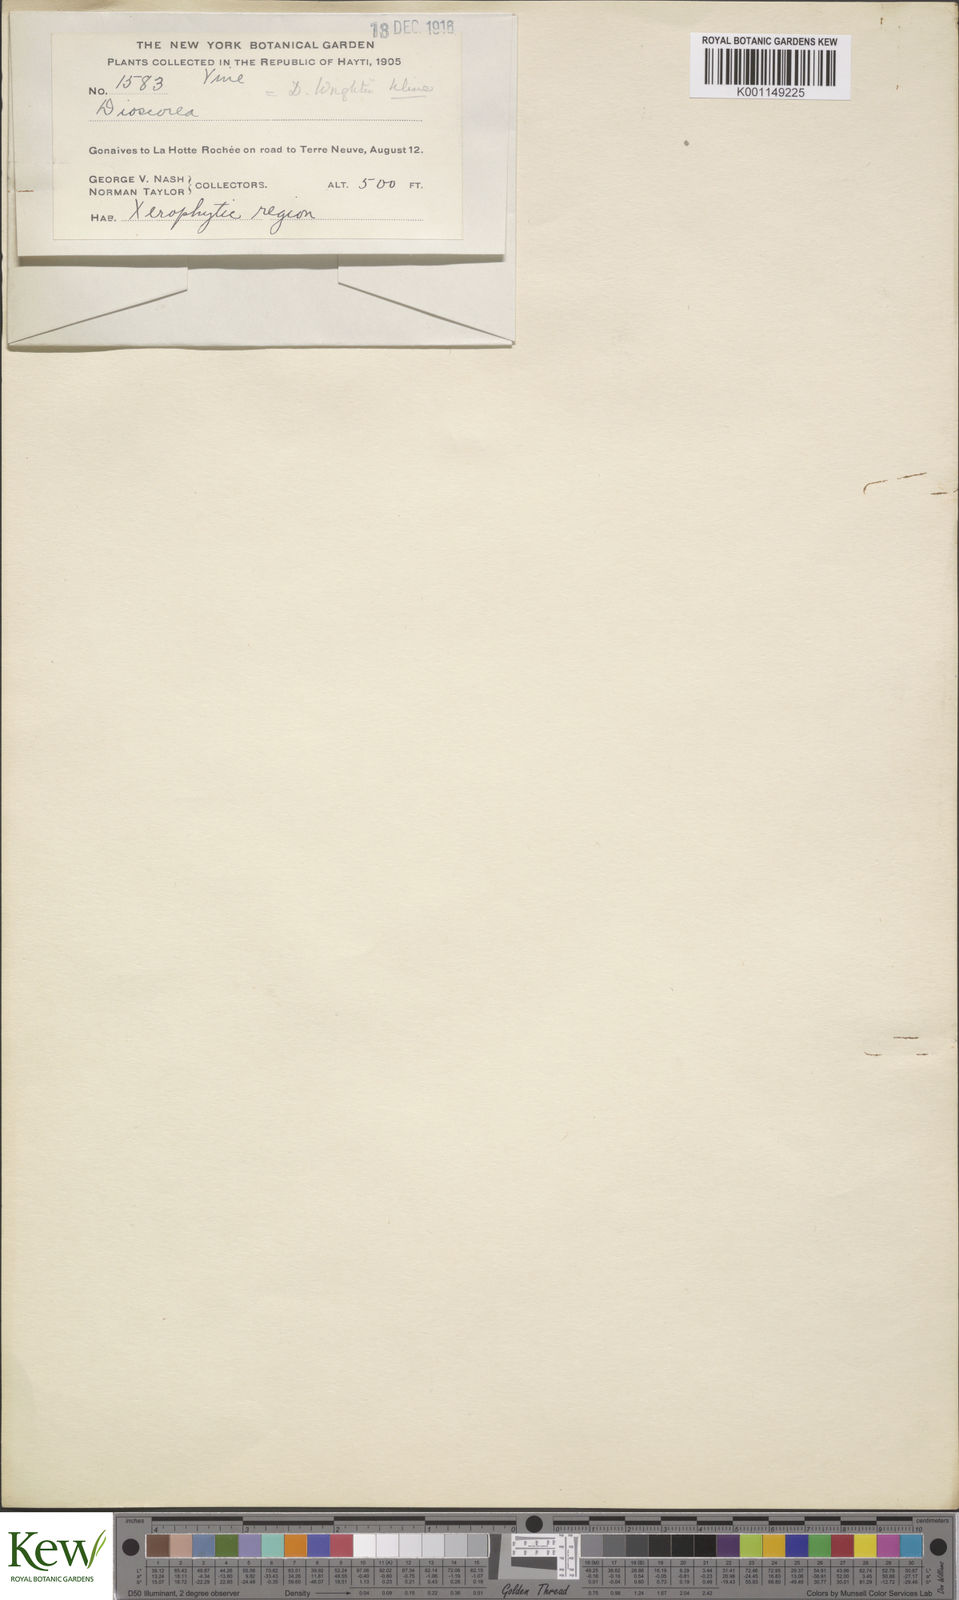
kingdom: Plantae
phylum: Tracheophyta
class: Liliopsida
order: Dioscoreales
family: Dioscoreaceae
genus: Dioscorea
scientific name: Dioscorea wrightii
